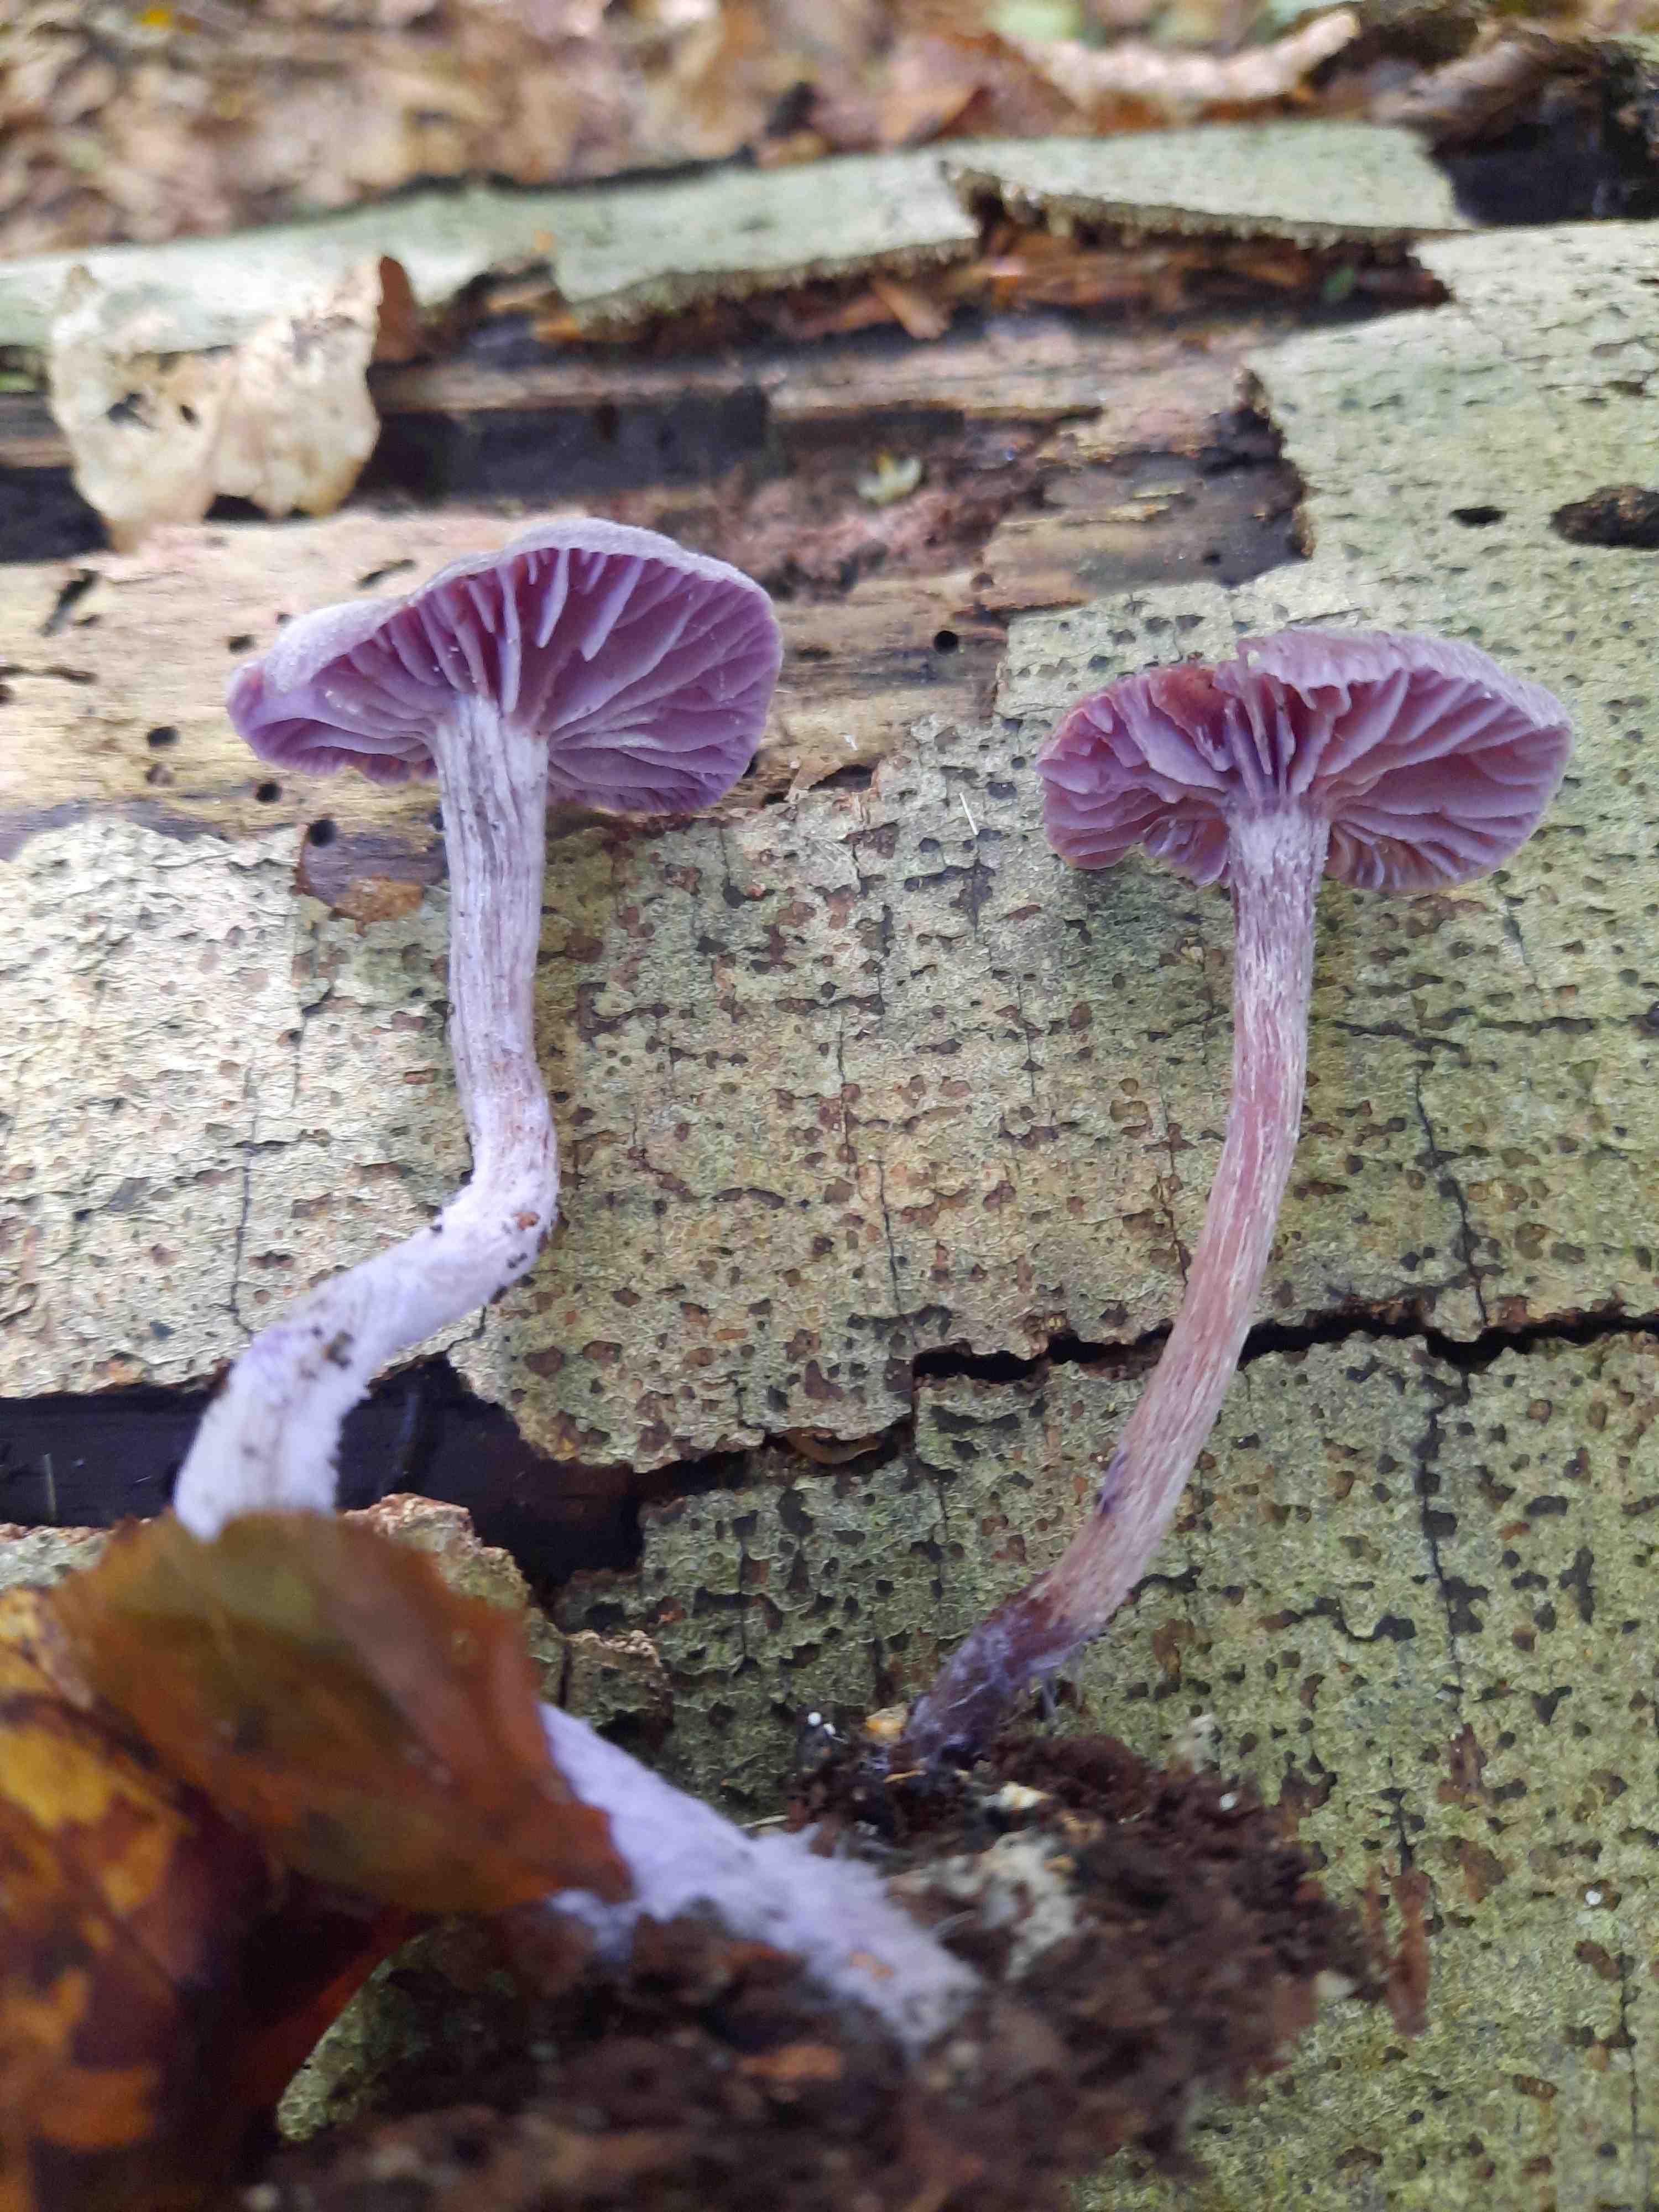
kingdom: Fungi
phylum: Basidiomycota
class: Agaricomycetes
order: Agaricales
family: Hydnangiaceae
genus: Laccaria
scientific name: Laccaria amethystina
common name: violet ametysthat
